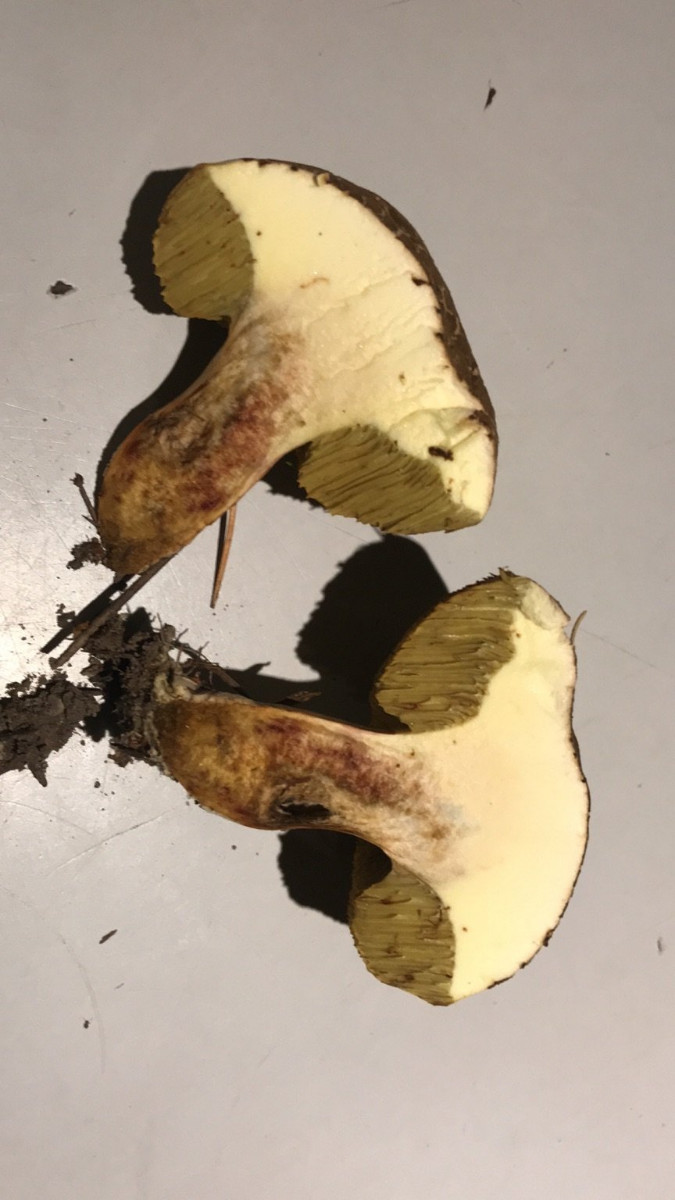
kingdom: Fungi
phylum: Basidiomycota
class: Agaricomycetes
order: Boletales
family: Boletaceae
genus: Xerocomellus
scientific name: Xerocomellus
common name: dværgrørhat
